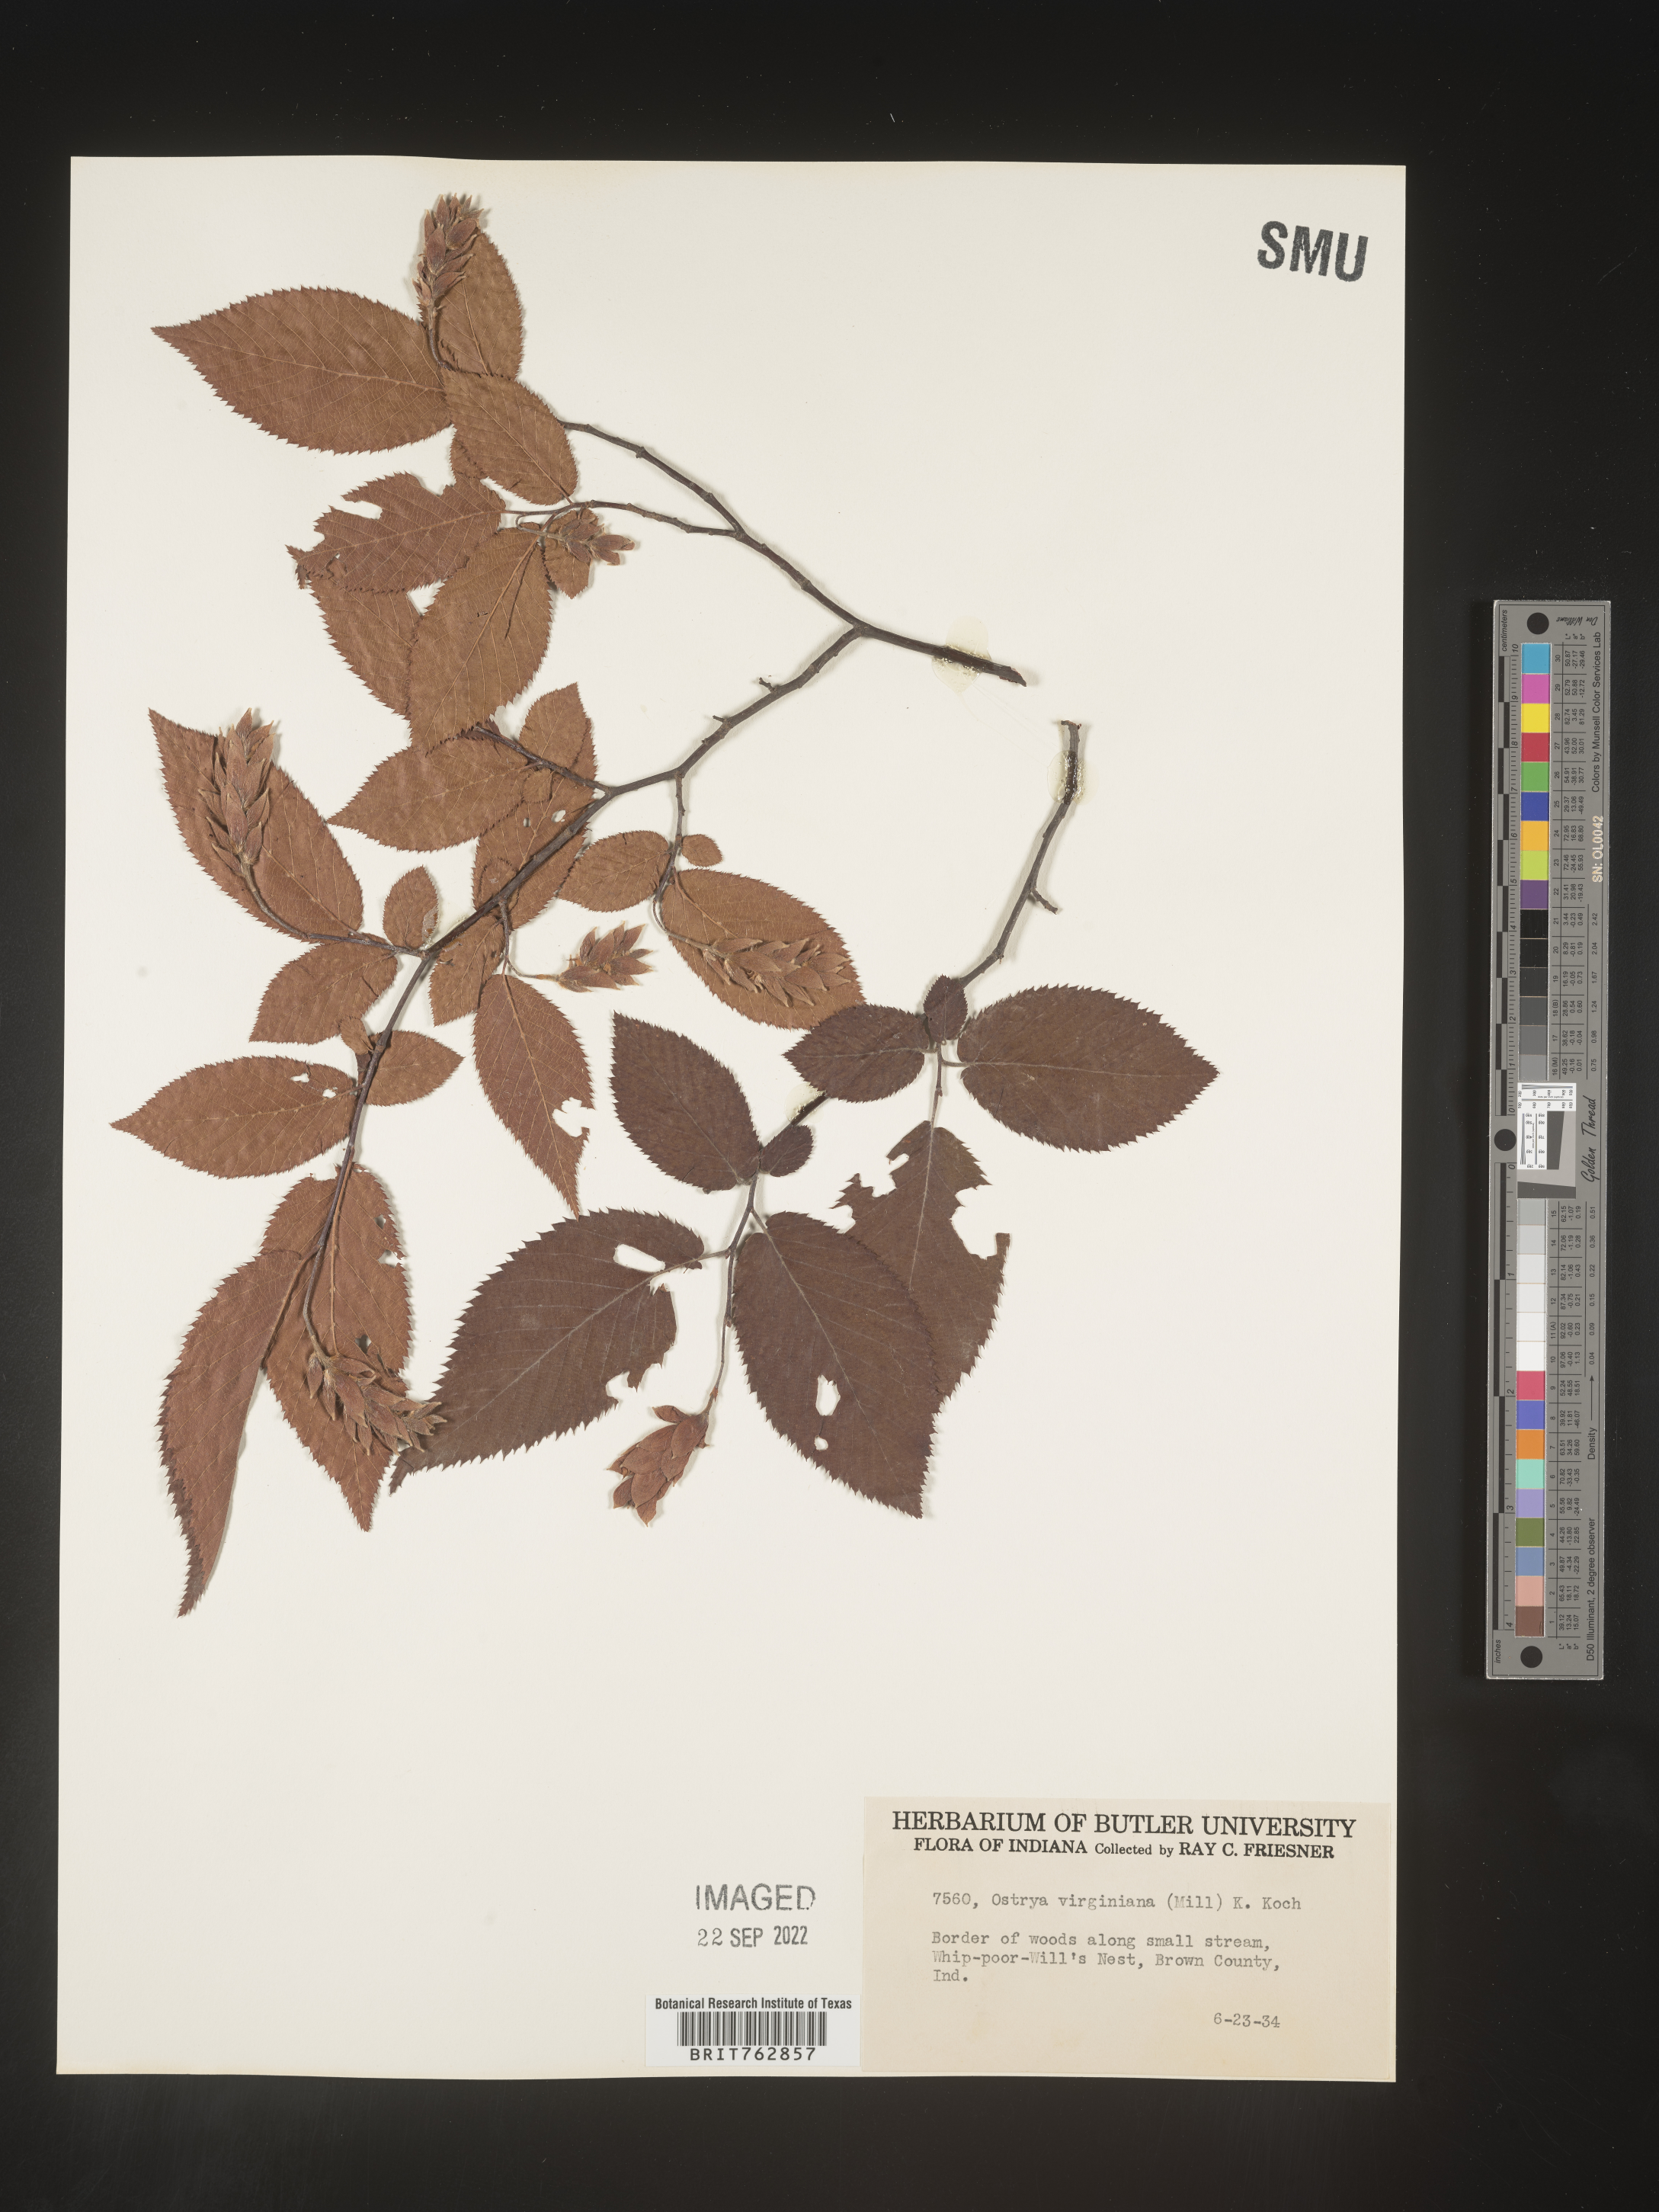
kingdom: Plantae
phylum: Tracheophyta
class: Magnoliopsida
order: Fagales
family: Betulaceae
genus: Ostrya
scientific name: Ostrya virginiana
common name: Ironwood
